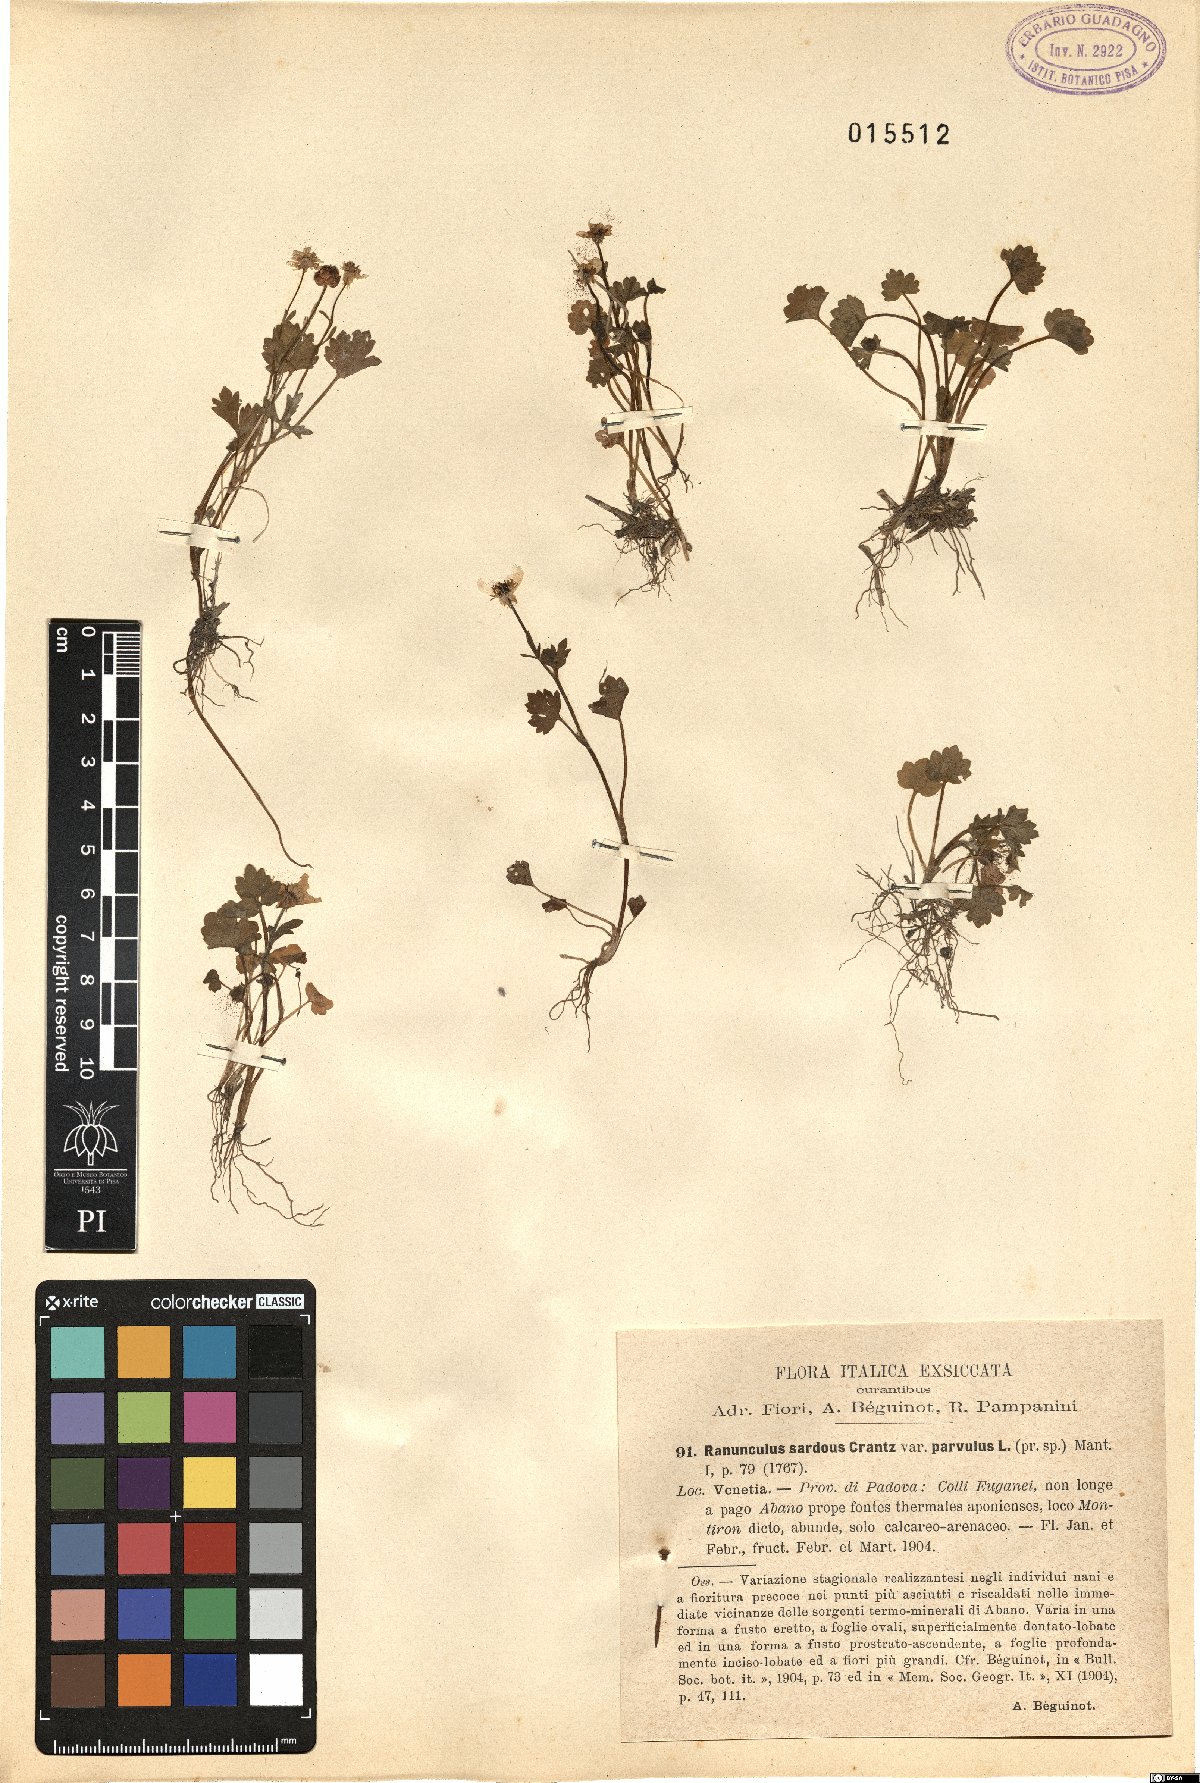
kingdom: Plantae
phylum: Tracheophyta
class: Magnoliopsida
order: Ranunculales
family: Ranunculaceae
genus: Ranunculus
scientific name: Ranunculus sardous
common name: Hairy buttercup
